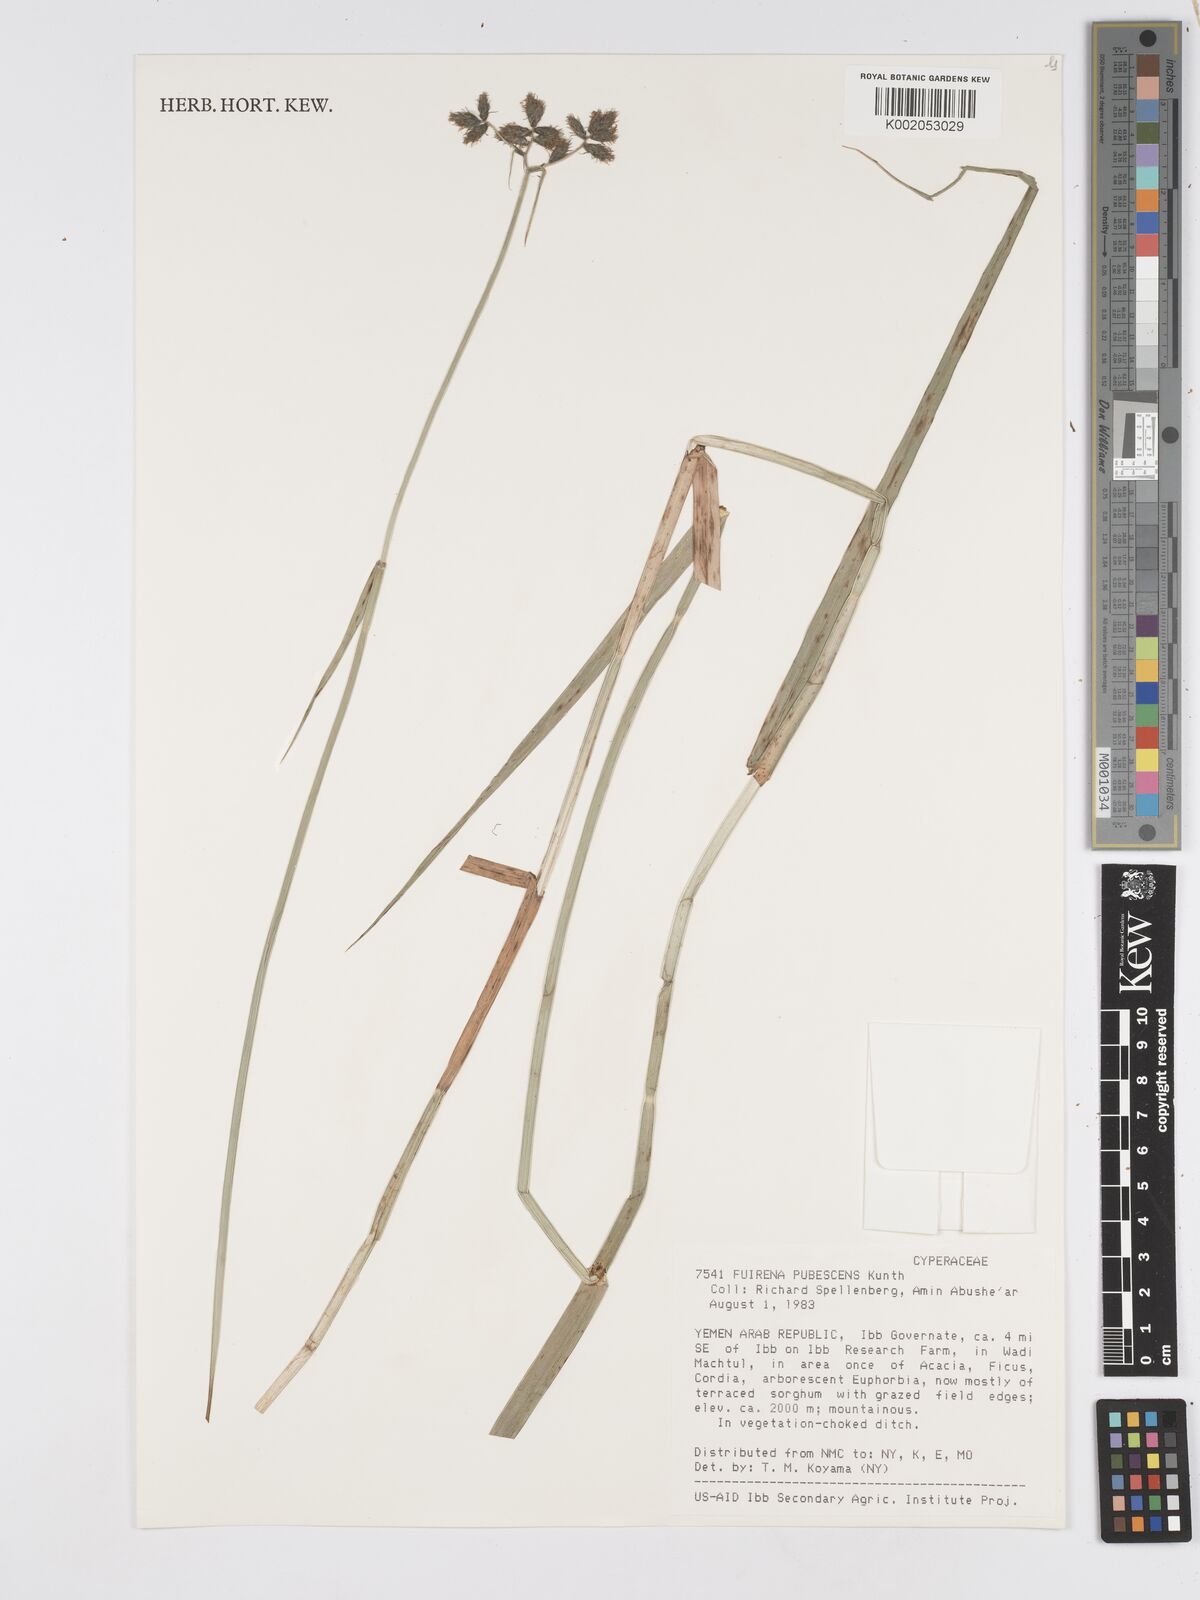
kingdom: Plantae
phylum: Tracheophyta
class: Liliopsida
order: Poales
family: Cyperaceae
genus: Fuirena
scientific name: Fuirena pubescens
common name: Hairy sedge
